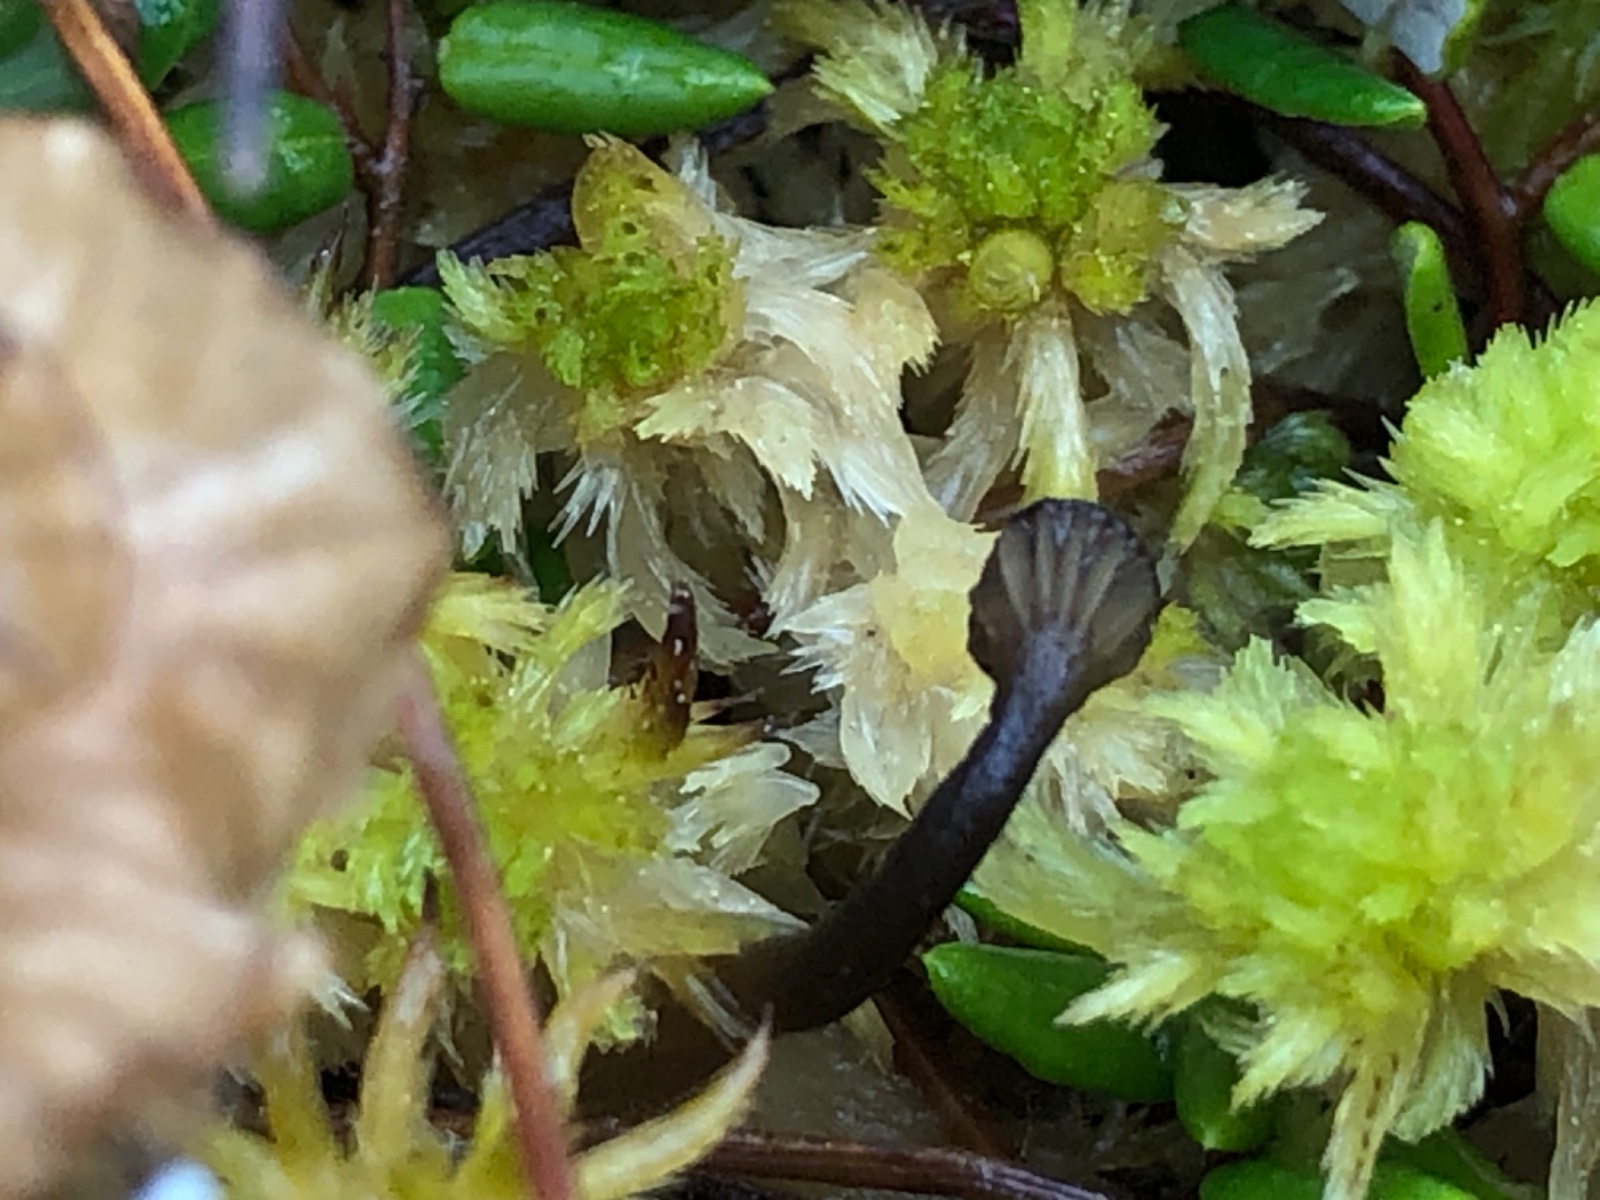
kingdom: Fungi
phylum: Basidiomycota
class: Agaricomycetes
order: Agaricales
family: Hygrophoraceae
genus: Arrhenia
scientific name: Arrhenia gerardiana
